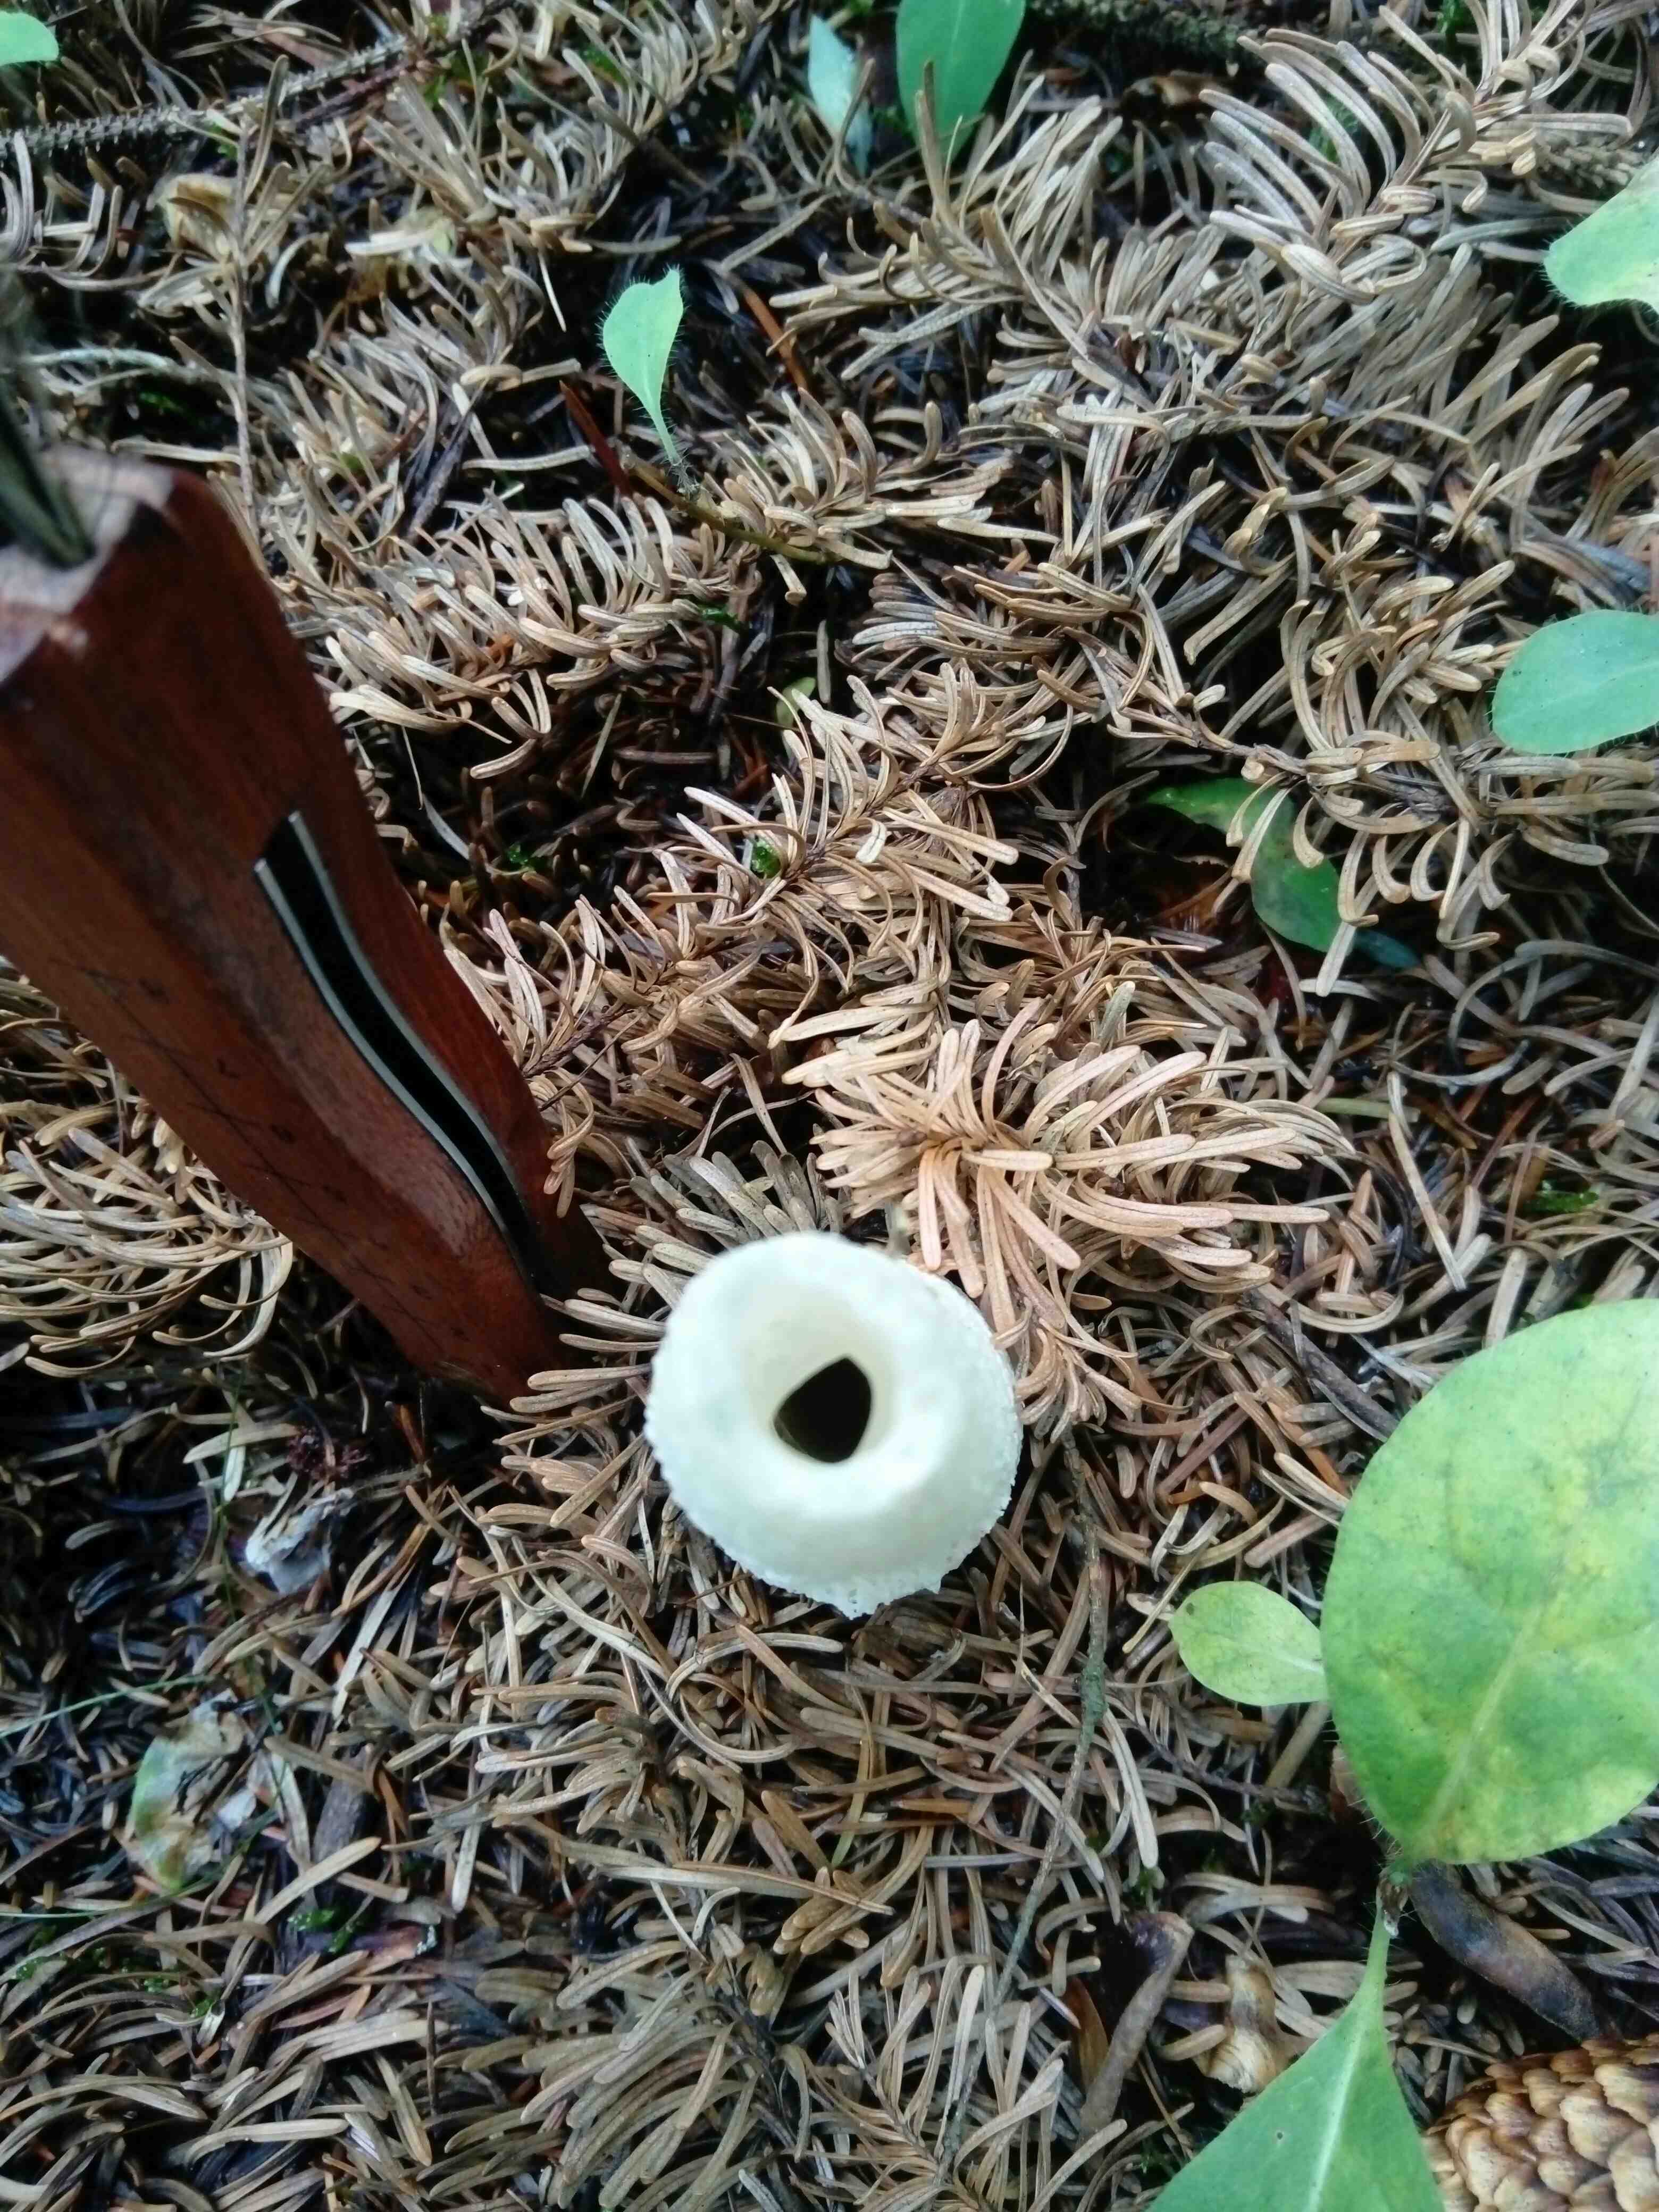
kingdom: Fungi
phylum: Basidiomycota
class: Agaricomycetes
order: Phallales
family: Phallaceae
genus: Phallus
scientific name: Phallus impudicus
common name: almindelig stinksvamp
